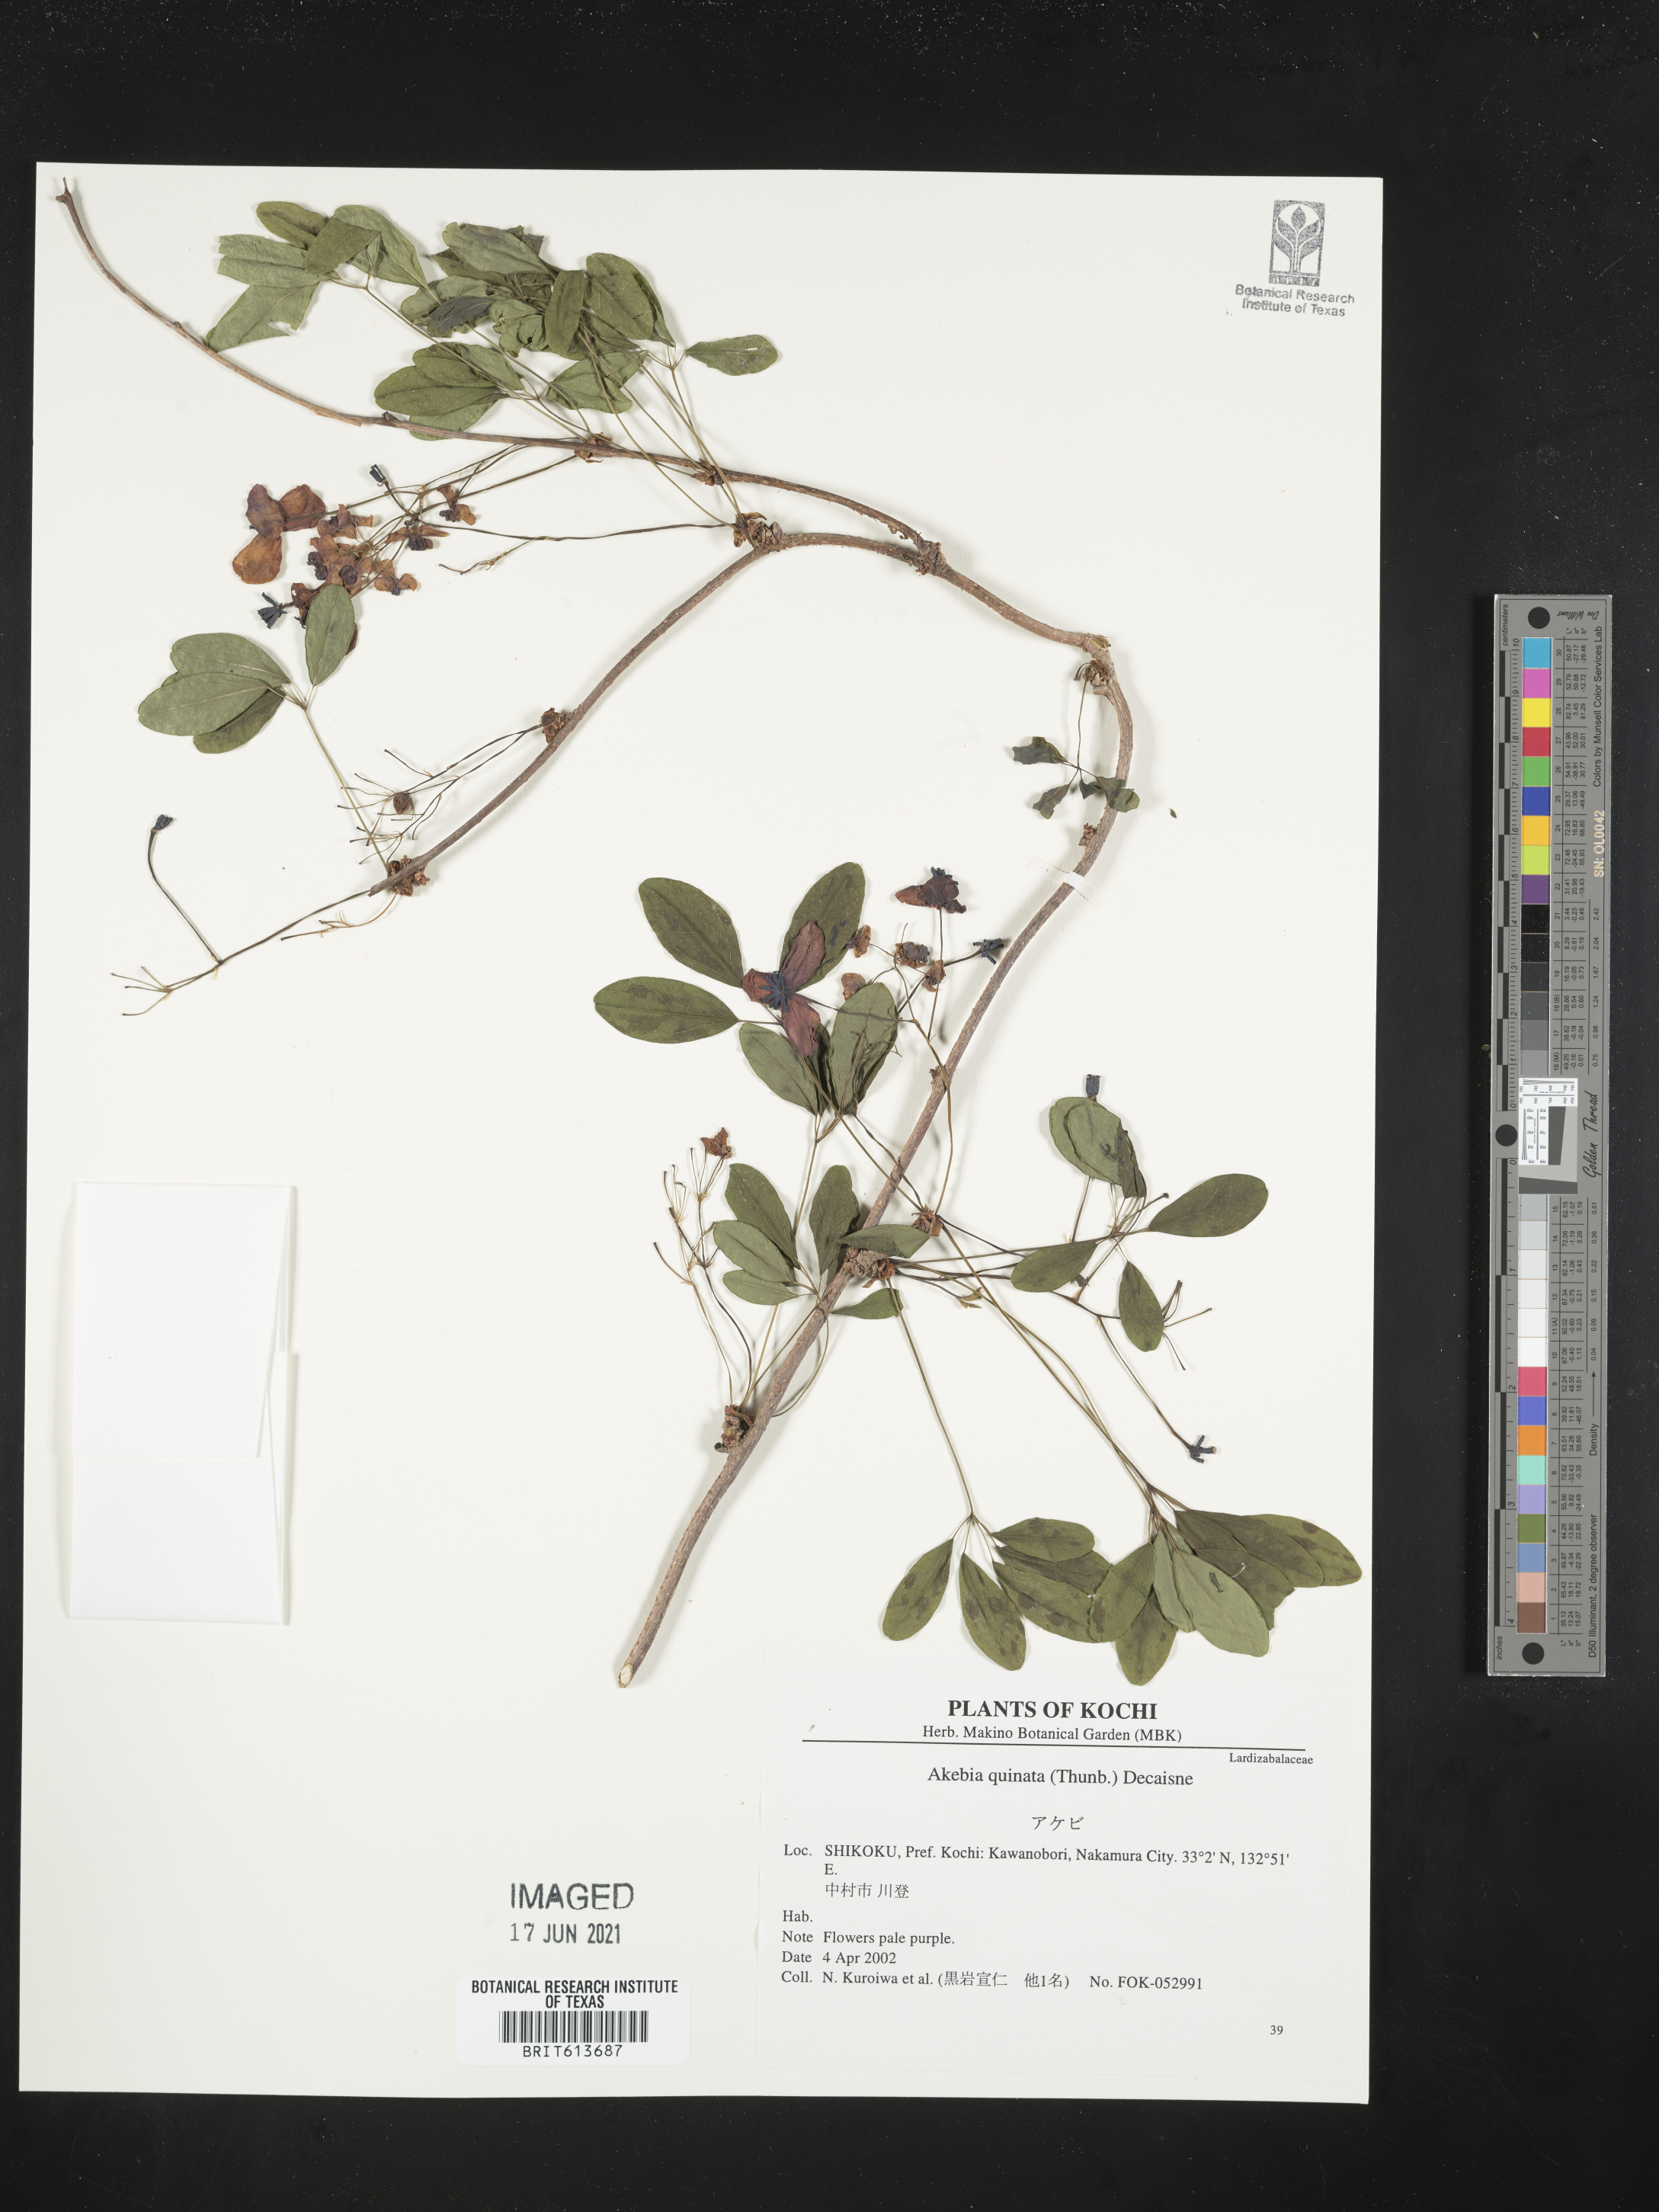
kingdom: Plantae
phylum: Tracheophyta
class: Magnoliopsida
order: Ranunculales
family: Lardizabalaceae
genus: Akebia
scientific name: Akebia quinata
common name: Five-leaf akebia
